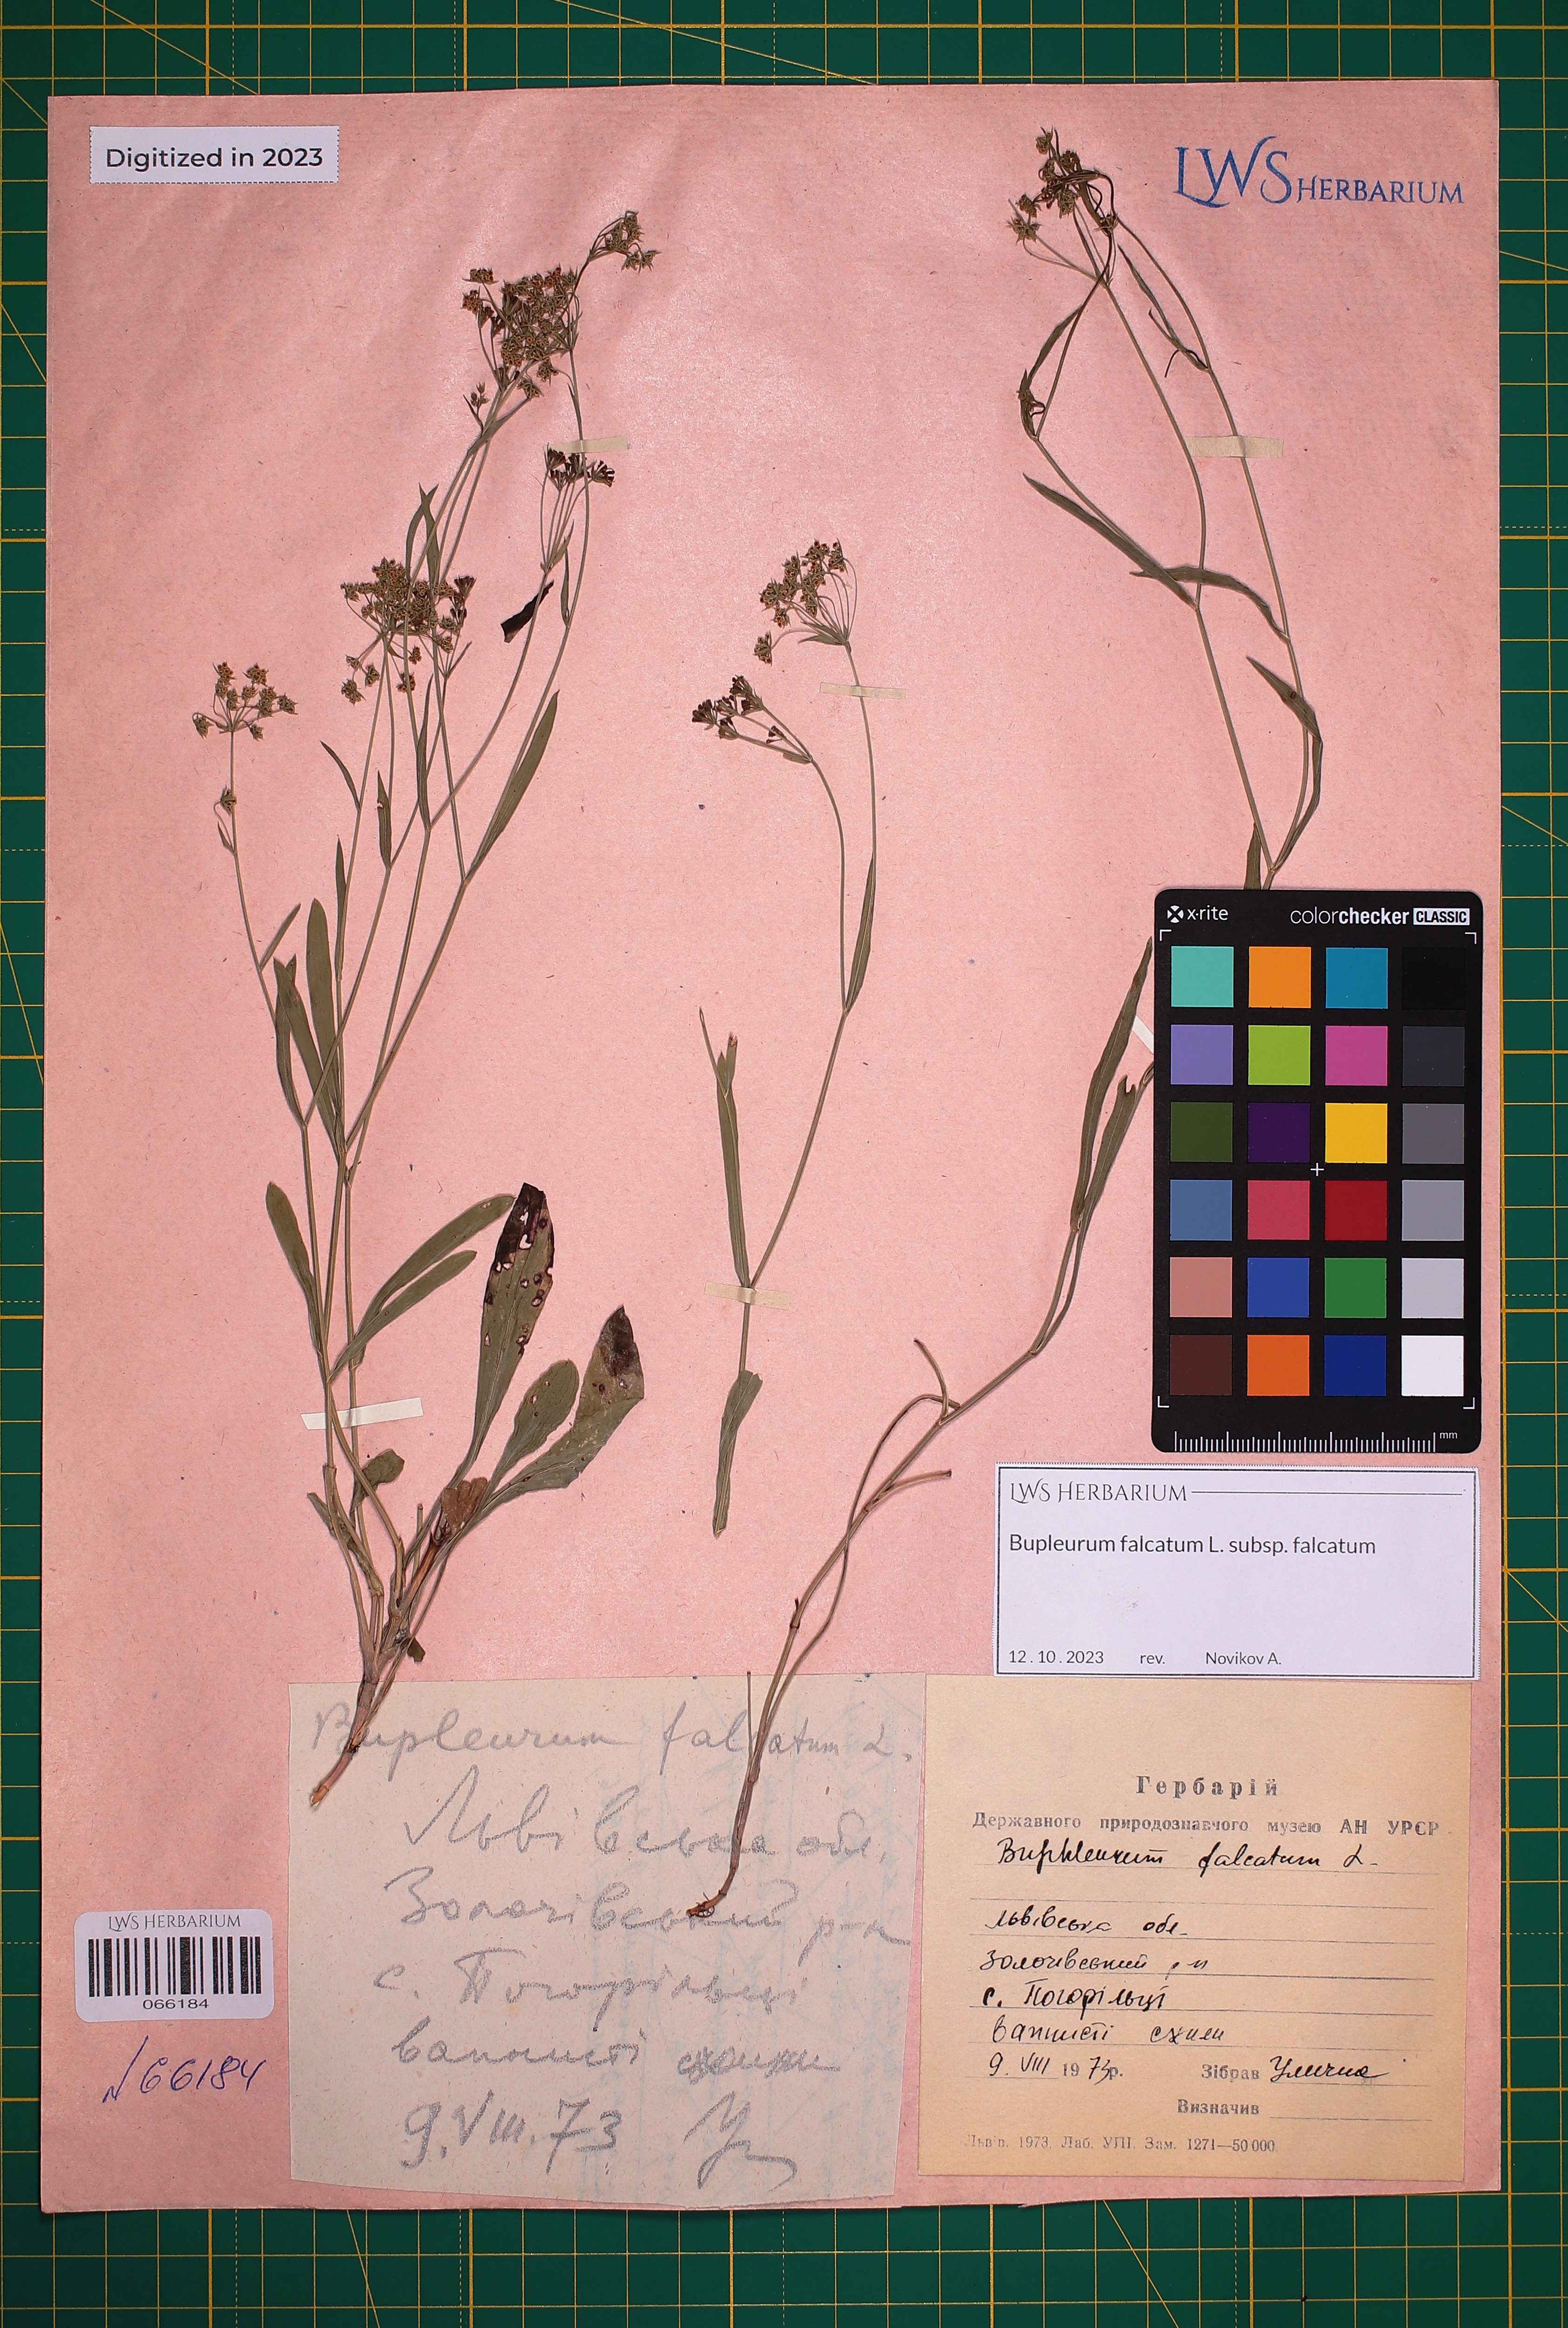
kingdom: Plantae
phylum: Tracheophyta
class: Magnoliopsida
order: Apiales
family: Apiaceae
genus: Bupleurum
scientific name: Bupleurum falcatum
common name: Sickle-leaved hare's-ear
